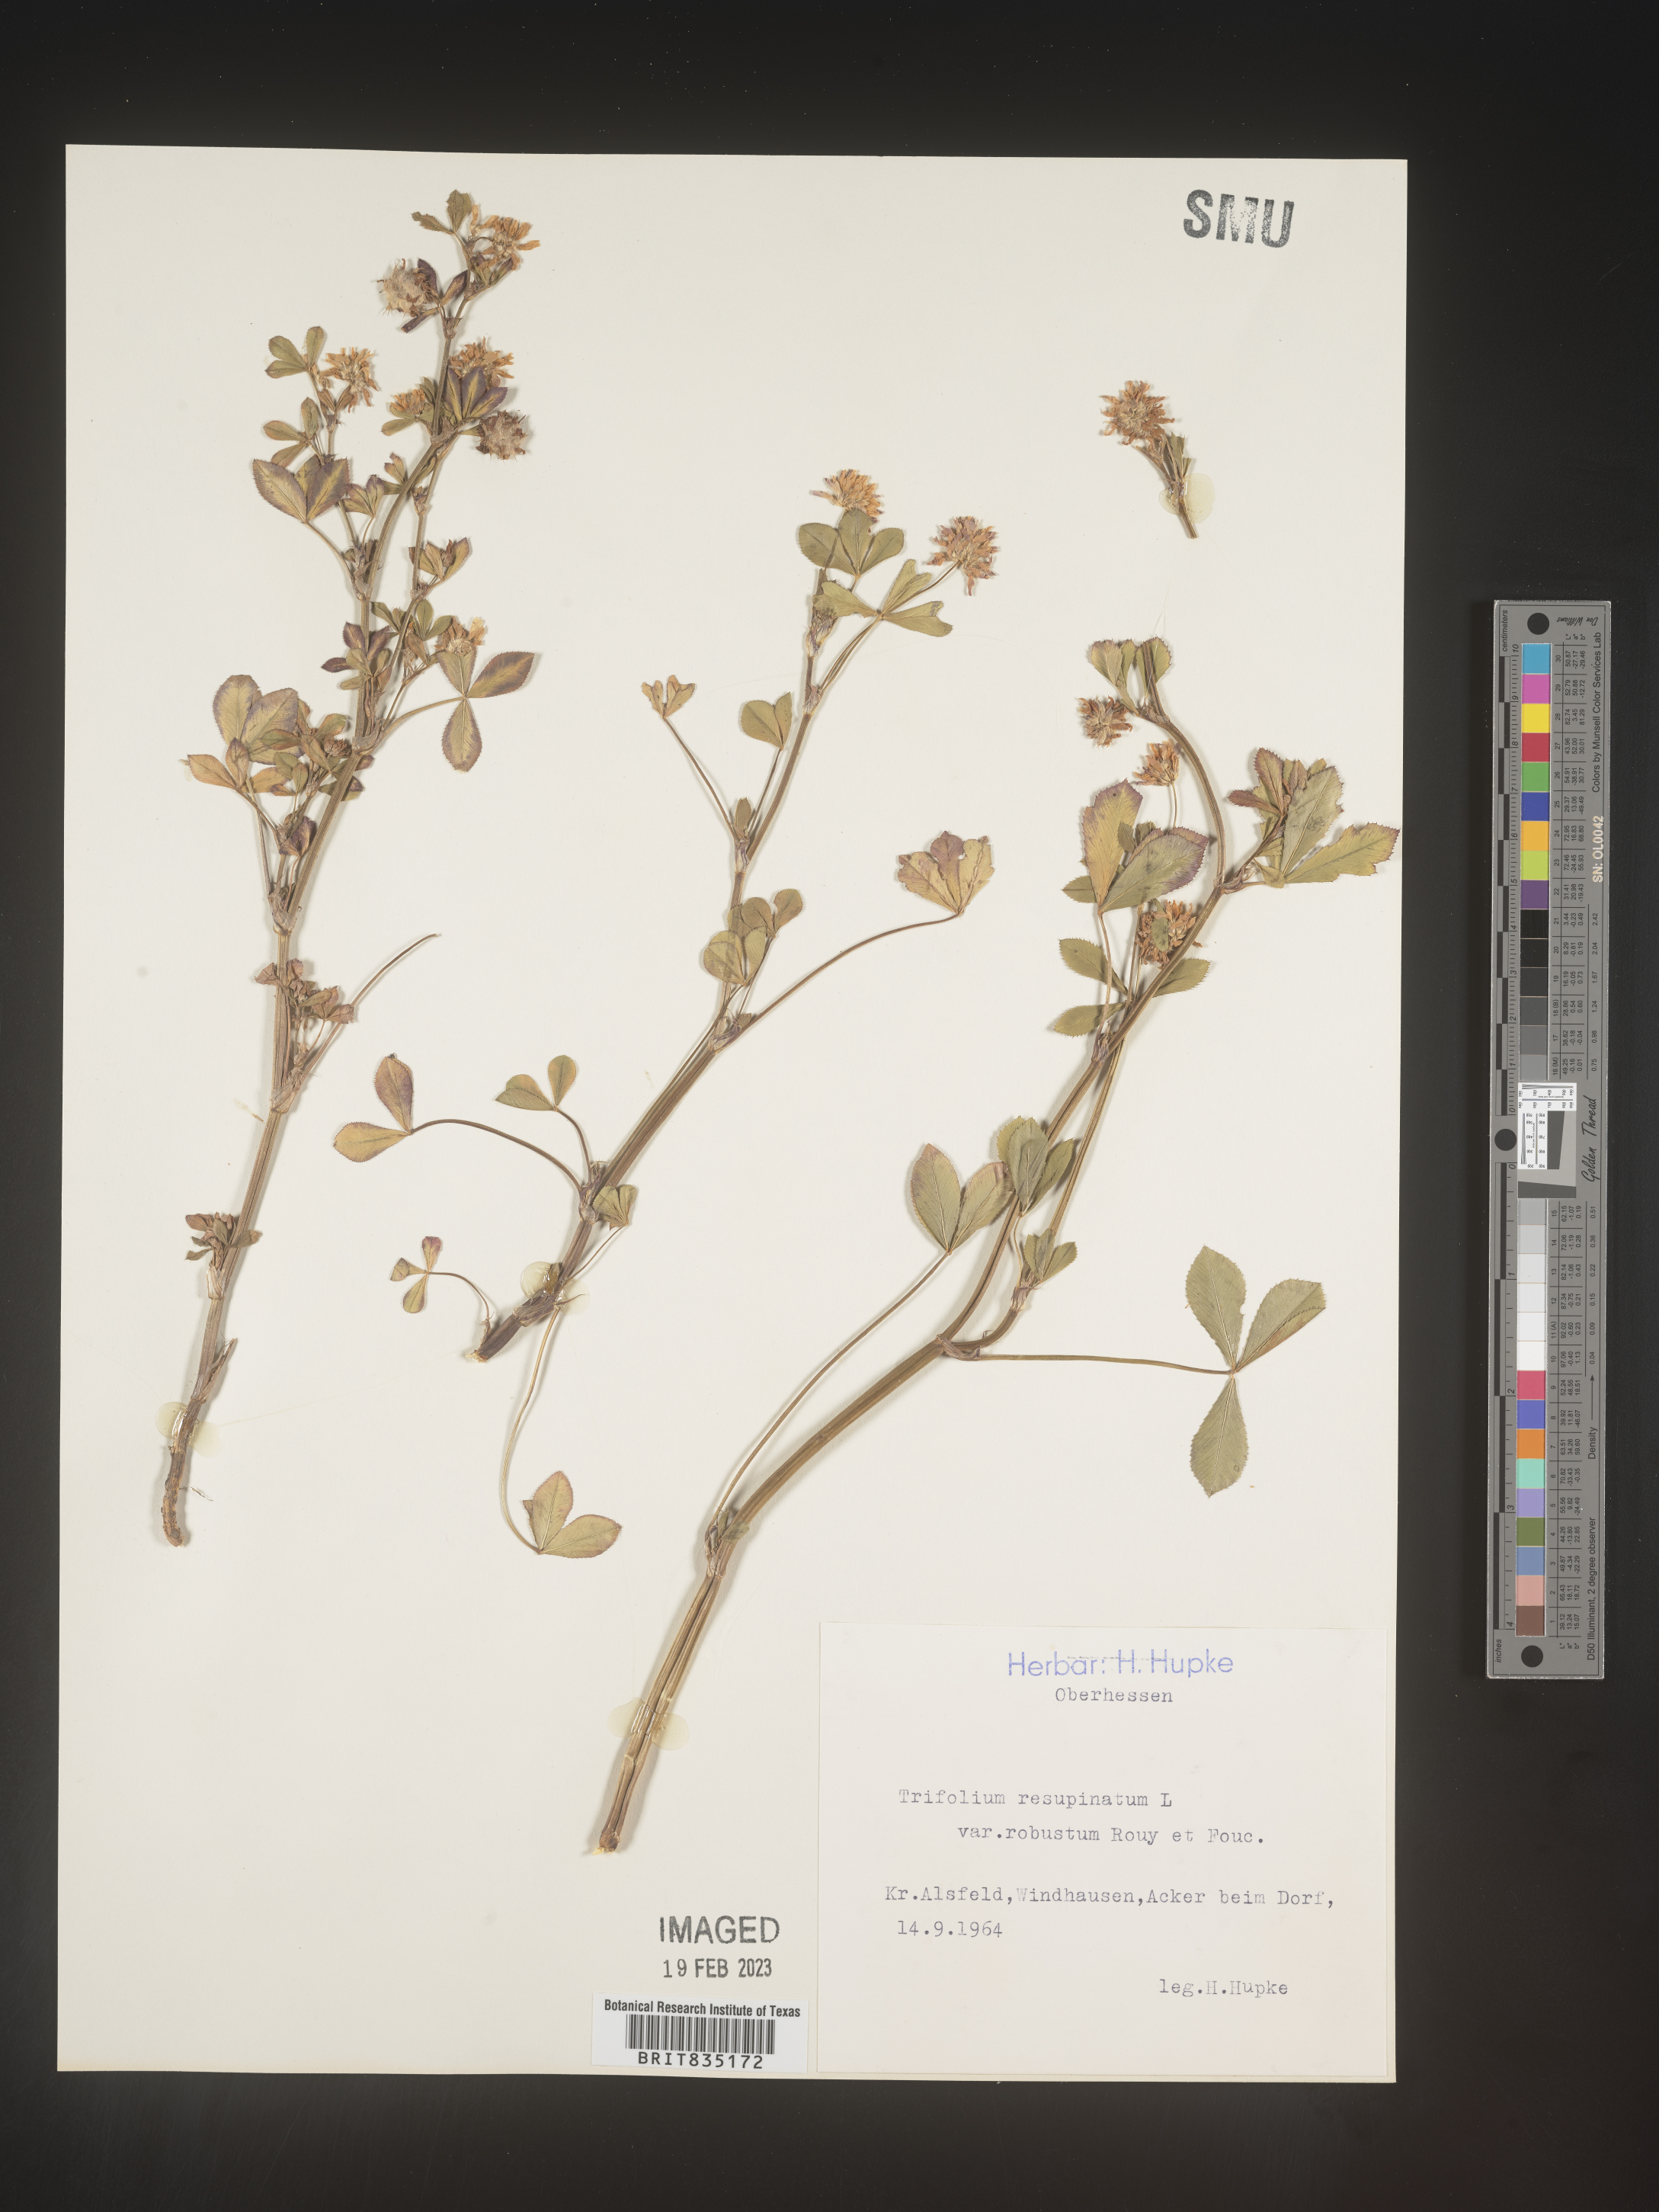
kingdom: Plantae
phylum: Tracheophyta
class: Magnoliopsida
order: Fabales
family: Fabaceae
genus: Trifolium
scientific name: Trifolium
